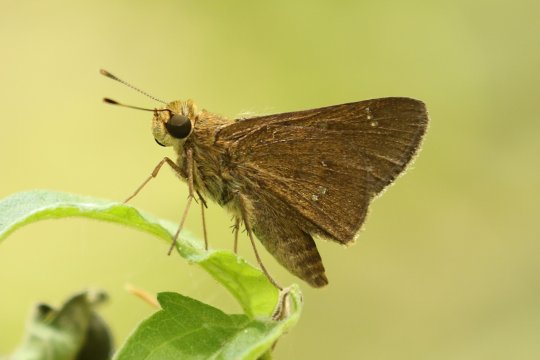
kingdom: Animalia
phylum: Arthropoda
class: Insecta
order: Lepidoptera
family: Hesperiidae
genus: Decinea
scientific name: Decinea percosius
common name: Double-dotted Skipper
